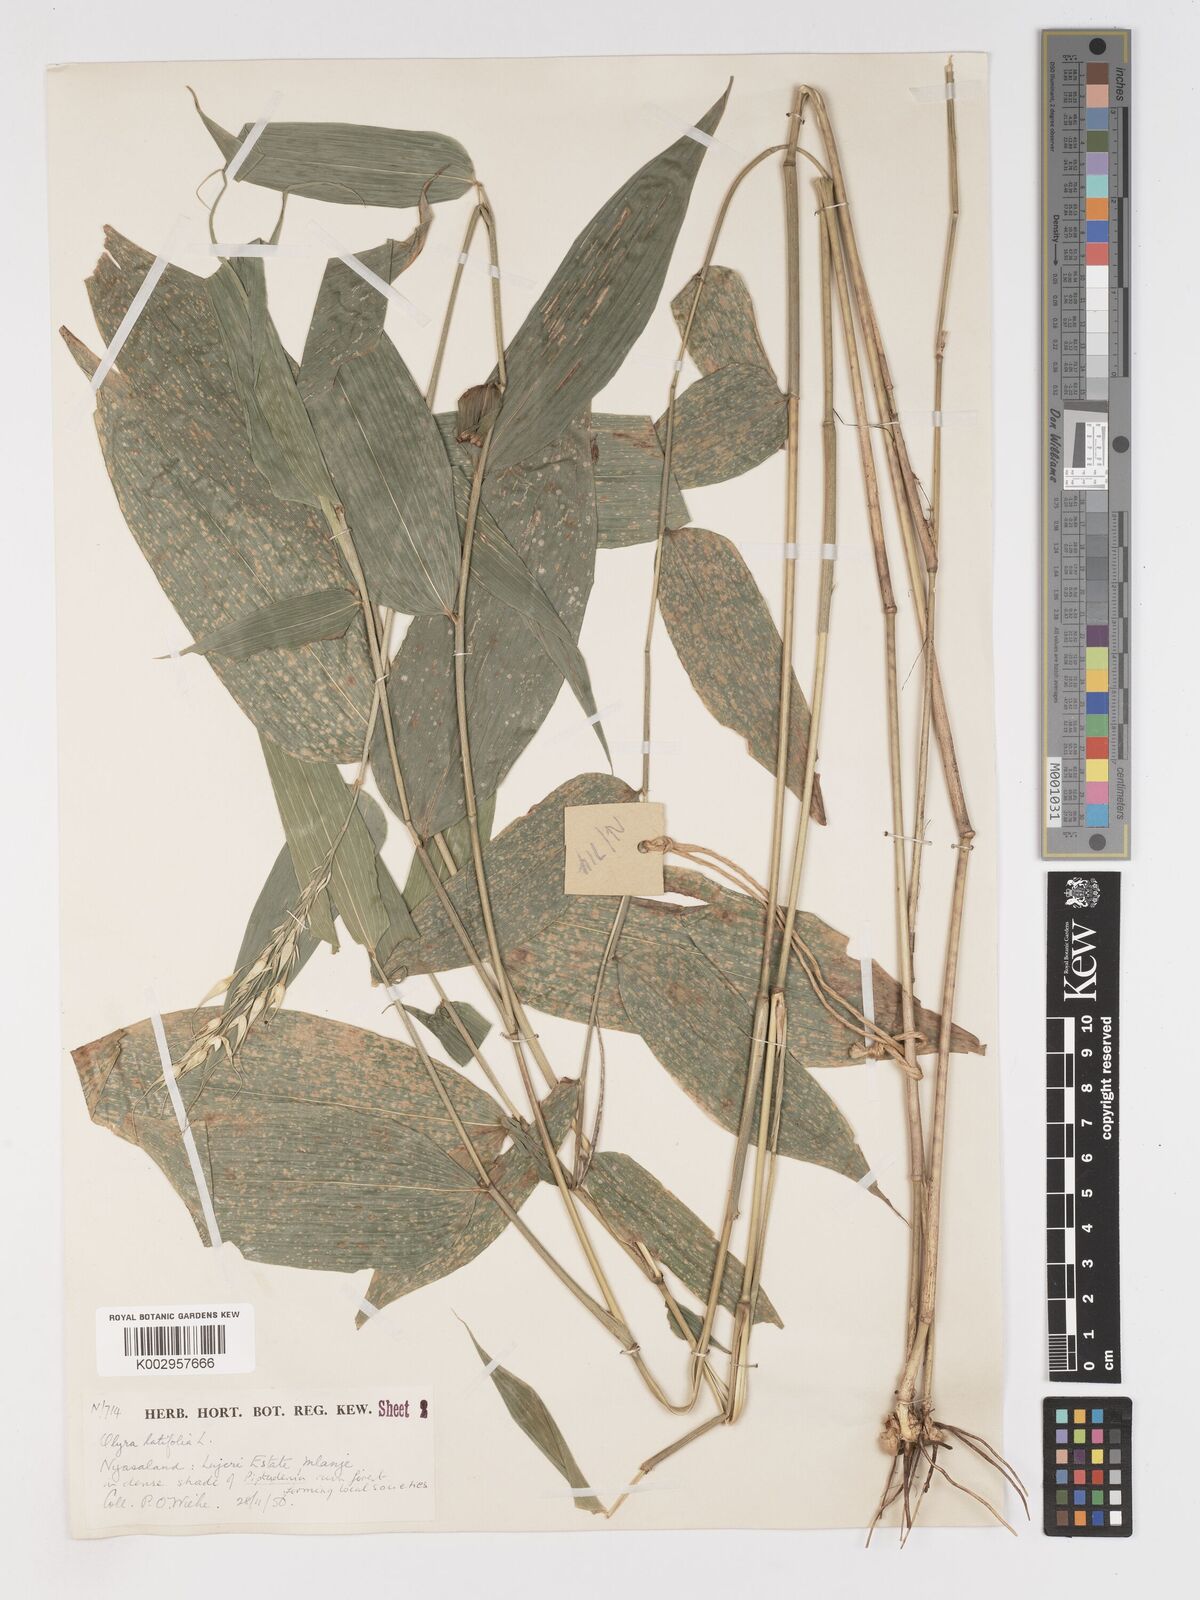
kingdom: Plantae
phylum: Tracheophyta
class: Liliopsida
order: Poales
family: Poaceae
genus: Olyra
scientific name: Olyra latifolia
